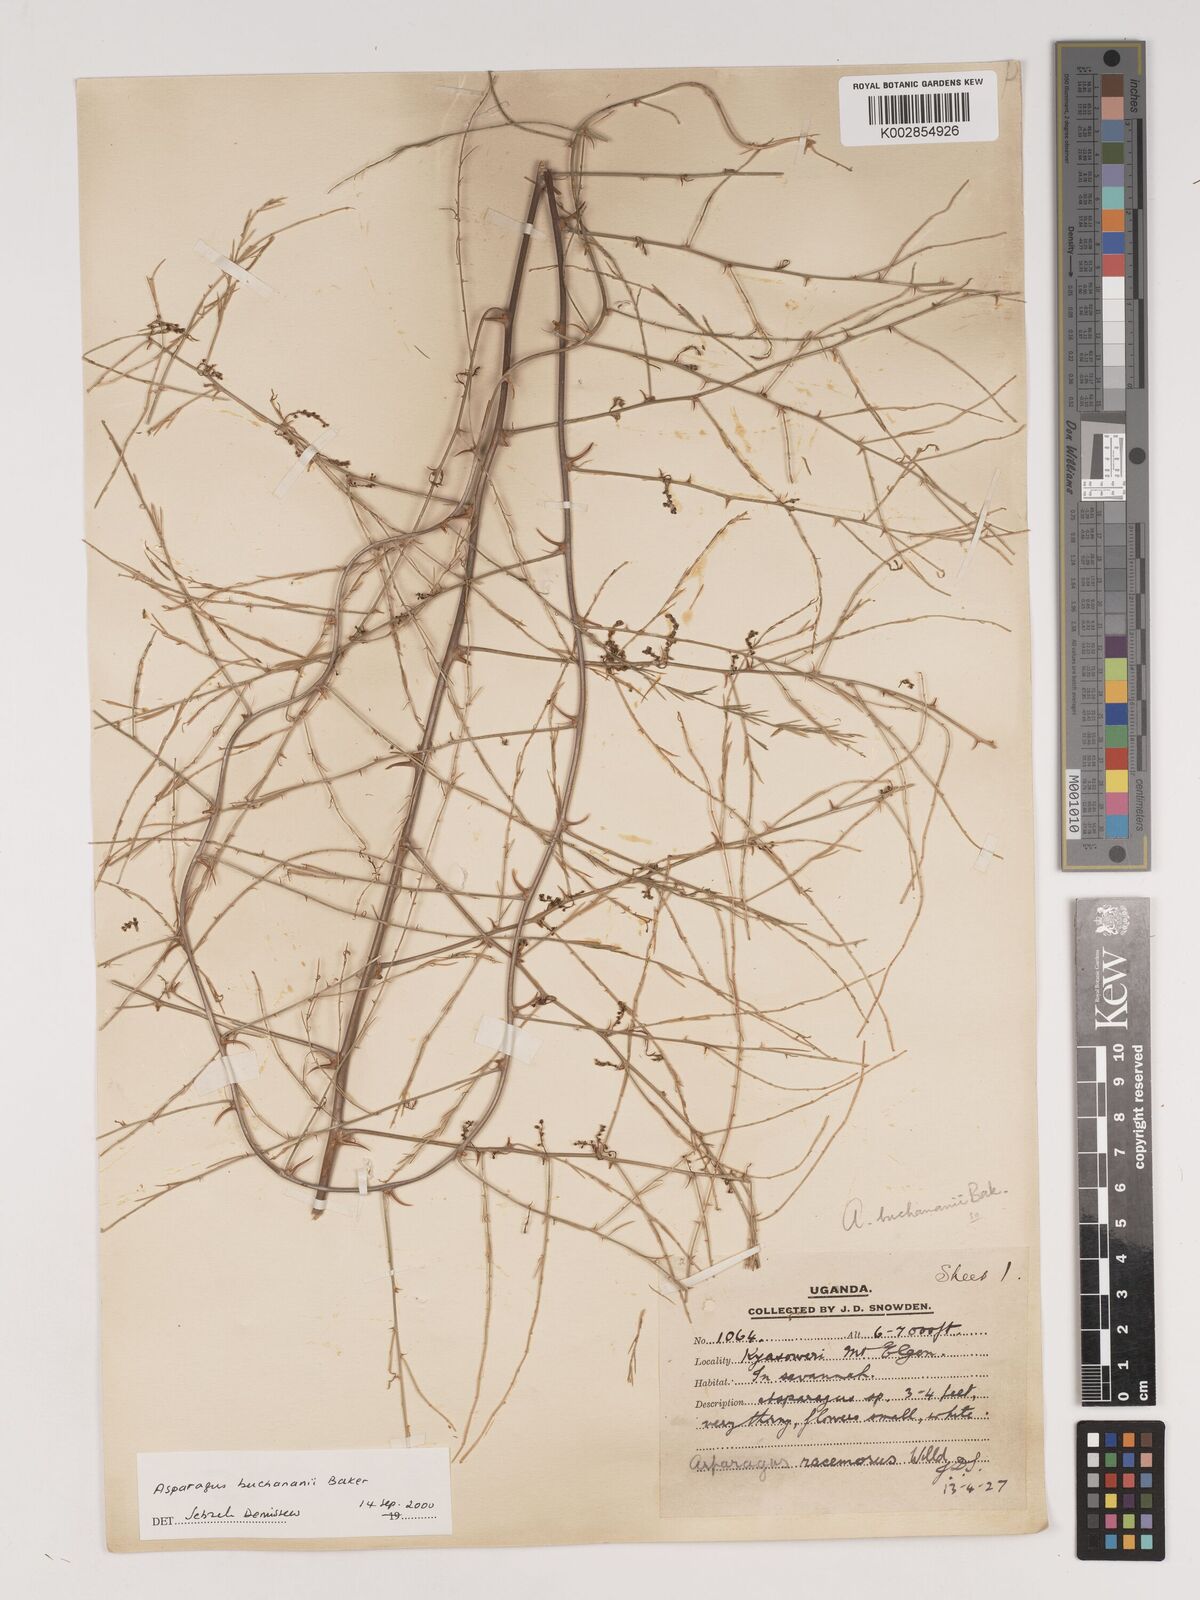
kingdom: Plantae
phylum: Tracheophyta
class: Liliopsida
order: Asparagales
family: Asparagaceae
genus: Asparagus
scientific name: Asparagus buchananii
